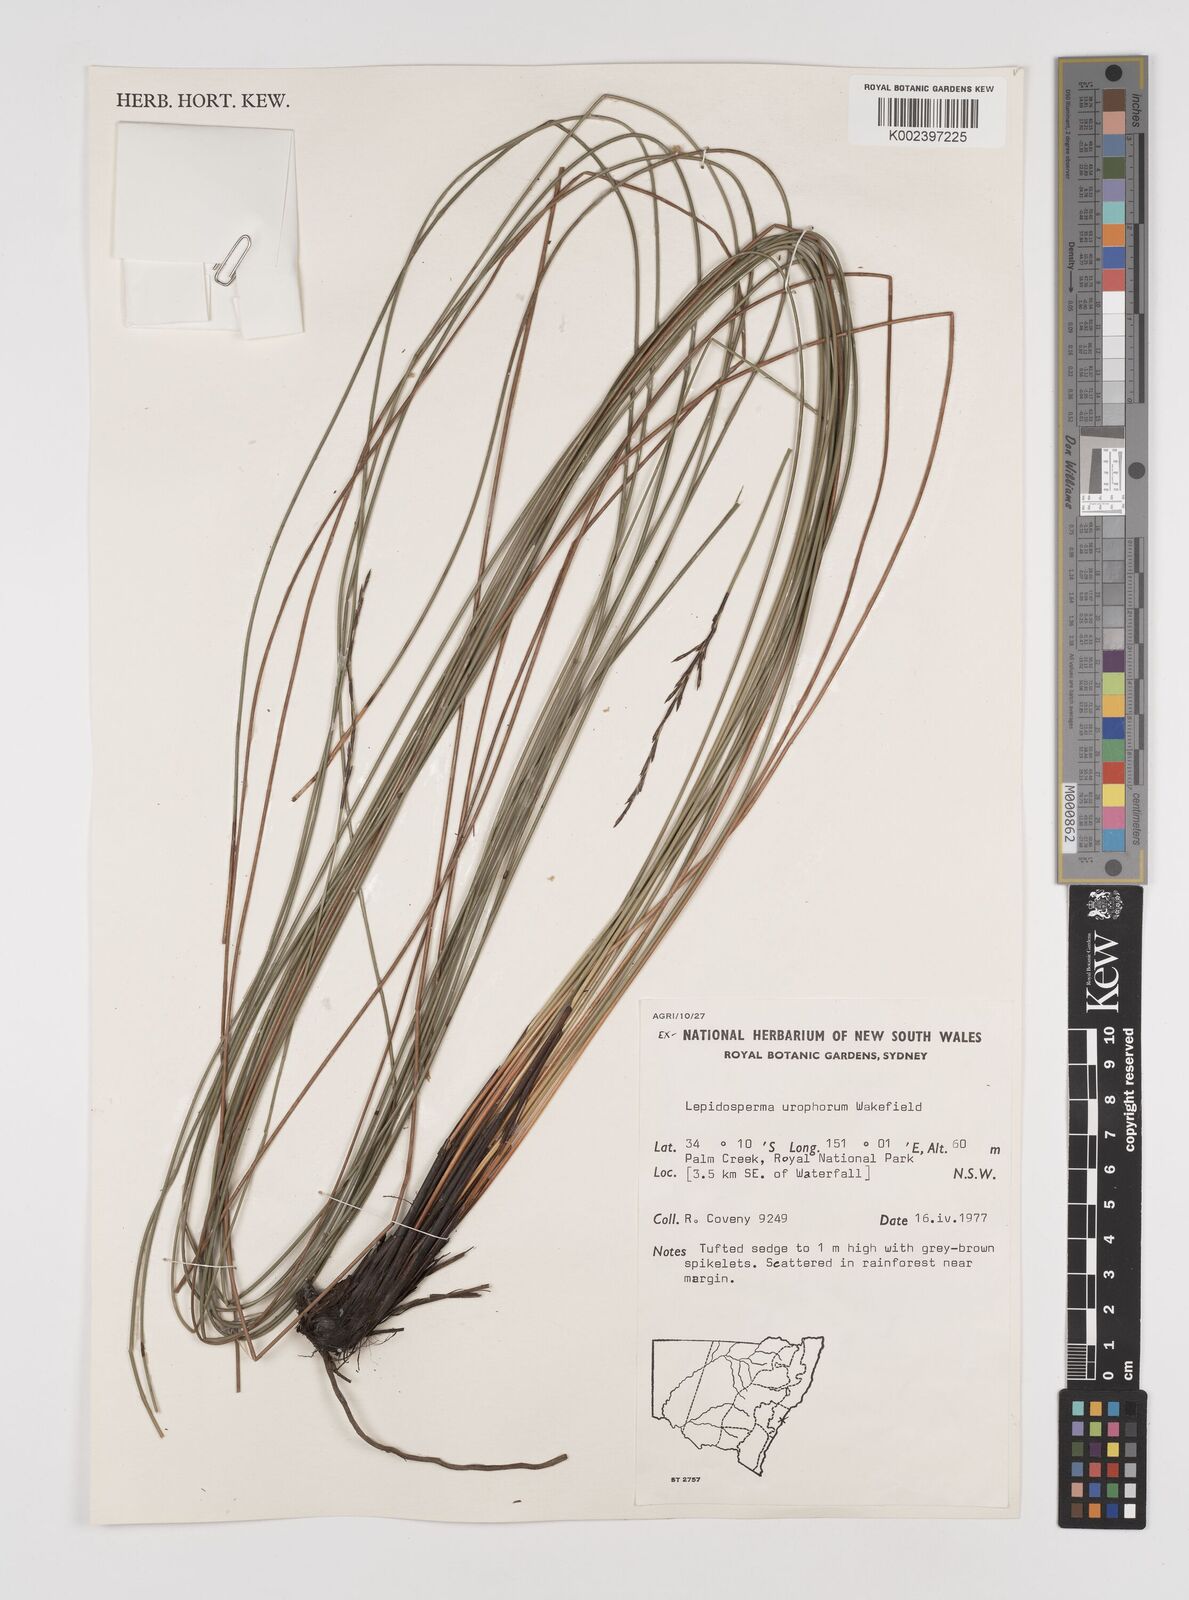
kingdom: Plantae
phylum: Tracheophyta
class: Liliopsida
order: Poales
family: Cyperaceae
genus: Lepidosperma
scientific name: Lepidosperma urophorum
